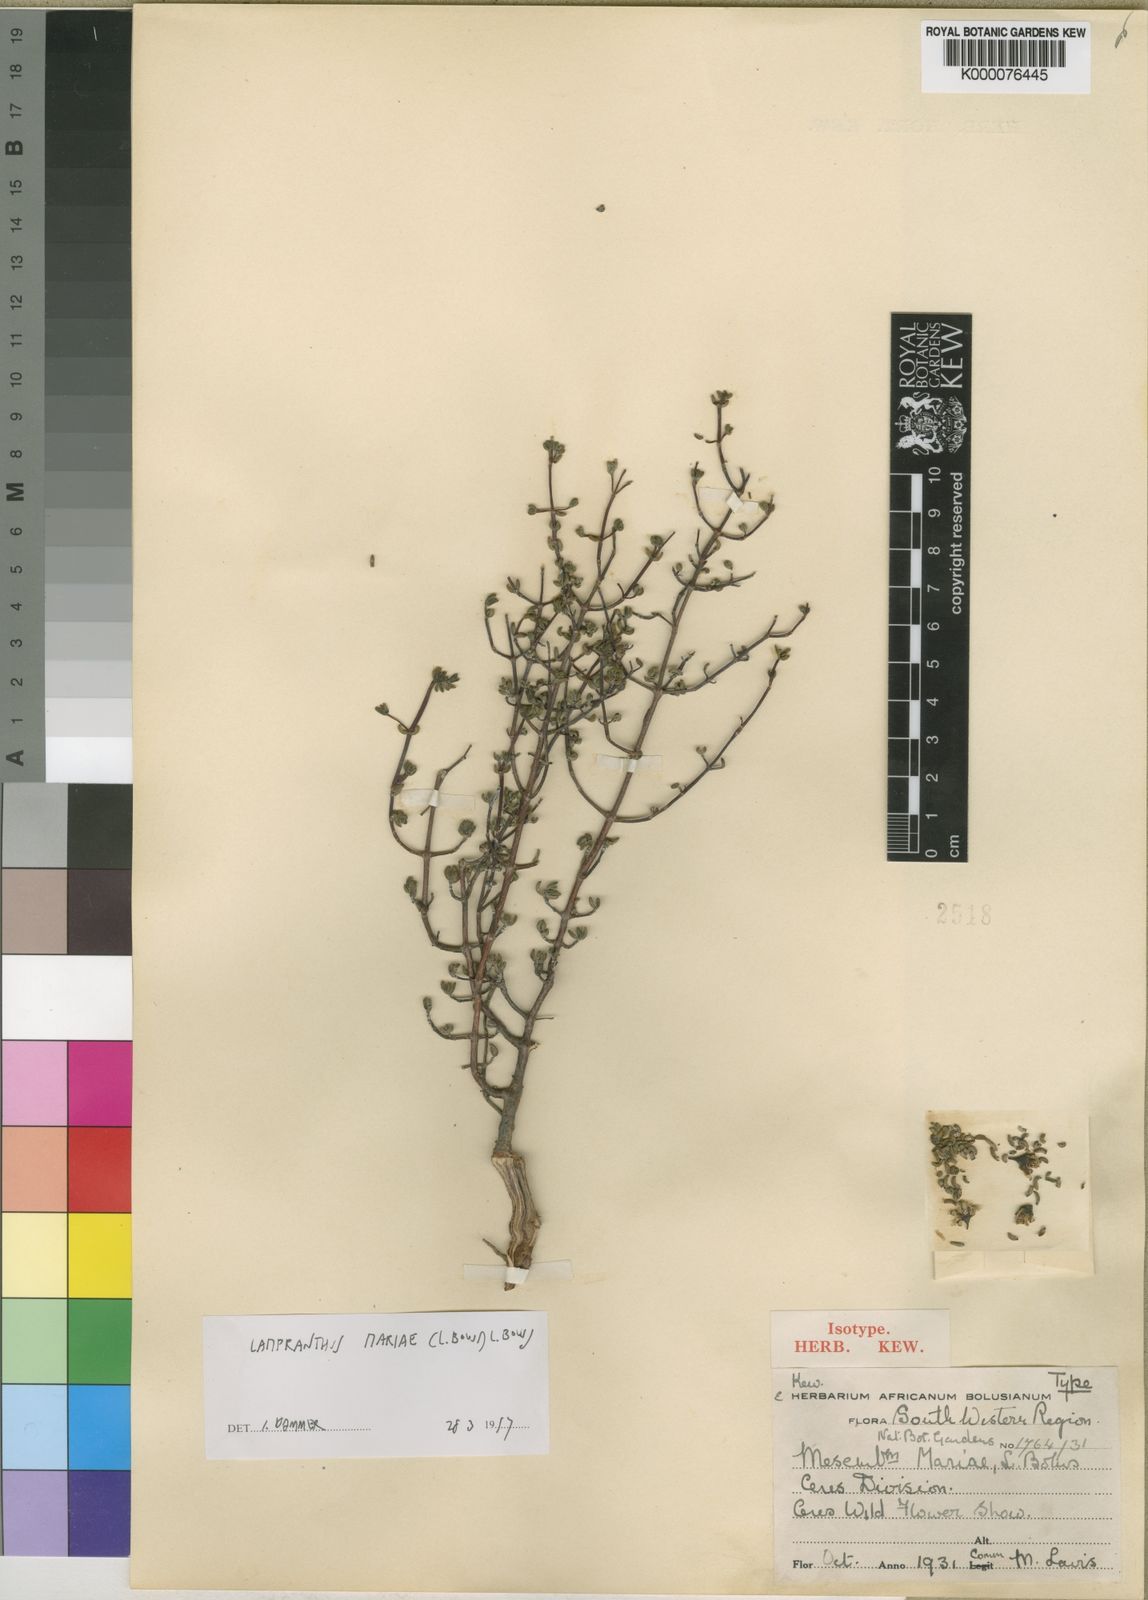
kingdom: Plantae
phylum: Tracheophyta
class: Magnoliopsida
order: Caryophyllales
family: Aizoaceae
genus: Lampranthus
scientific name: Lampranthus mariae
